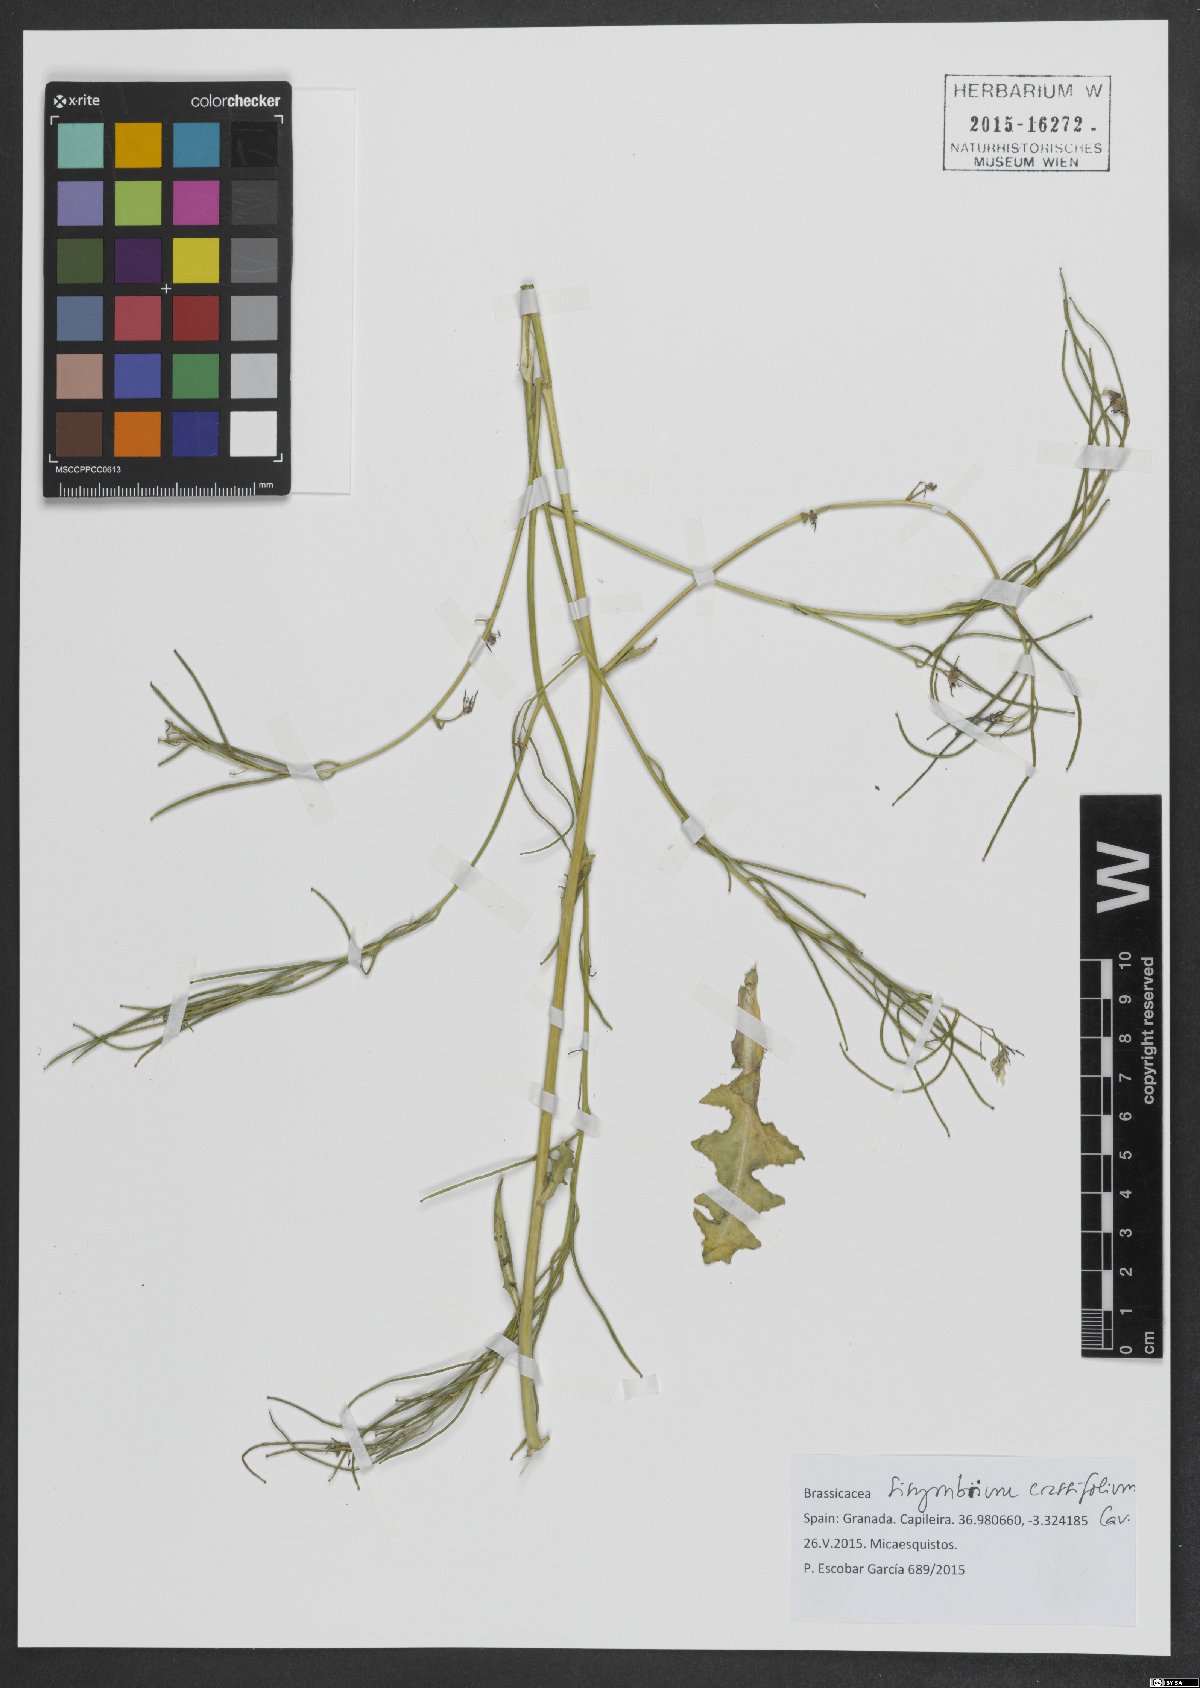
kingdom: Plantae
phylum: Tracheophyta
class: Magnoliopsida
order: Brassicales
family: Brassicaceae
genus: Sisymbrium
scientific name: Sisymbrium crassifolium
